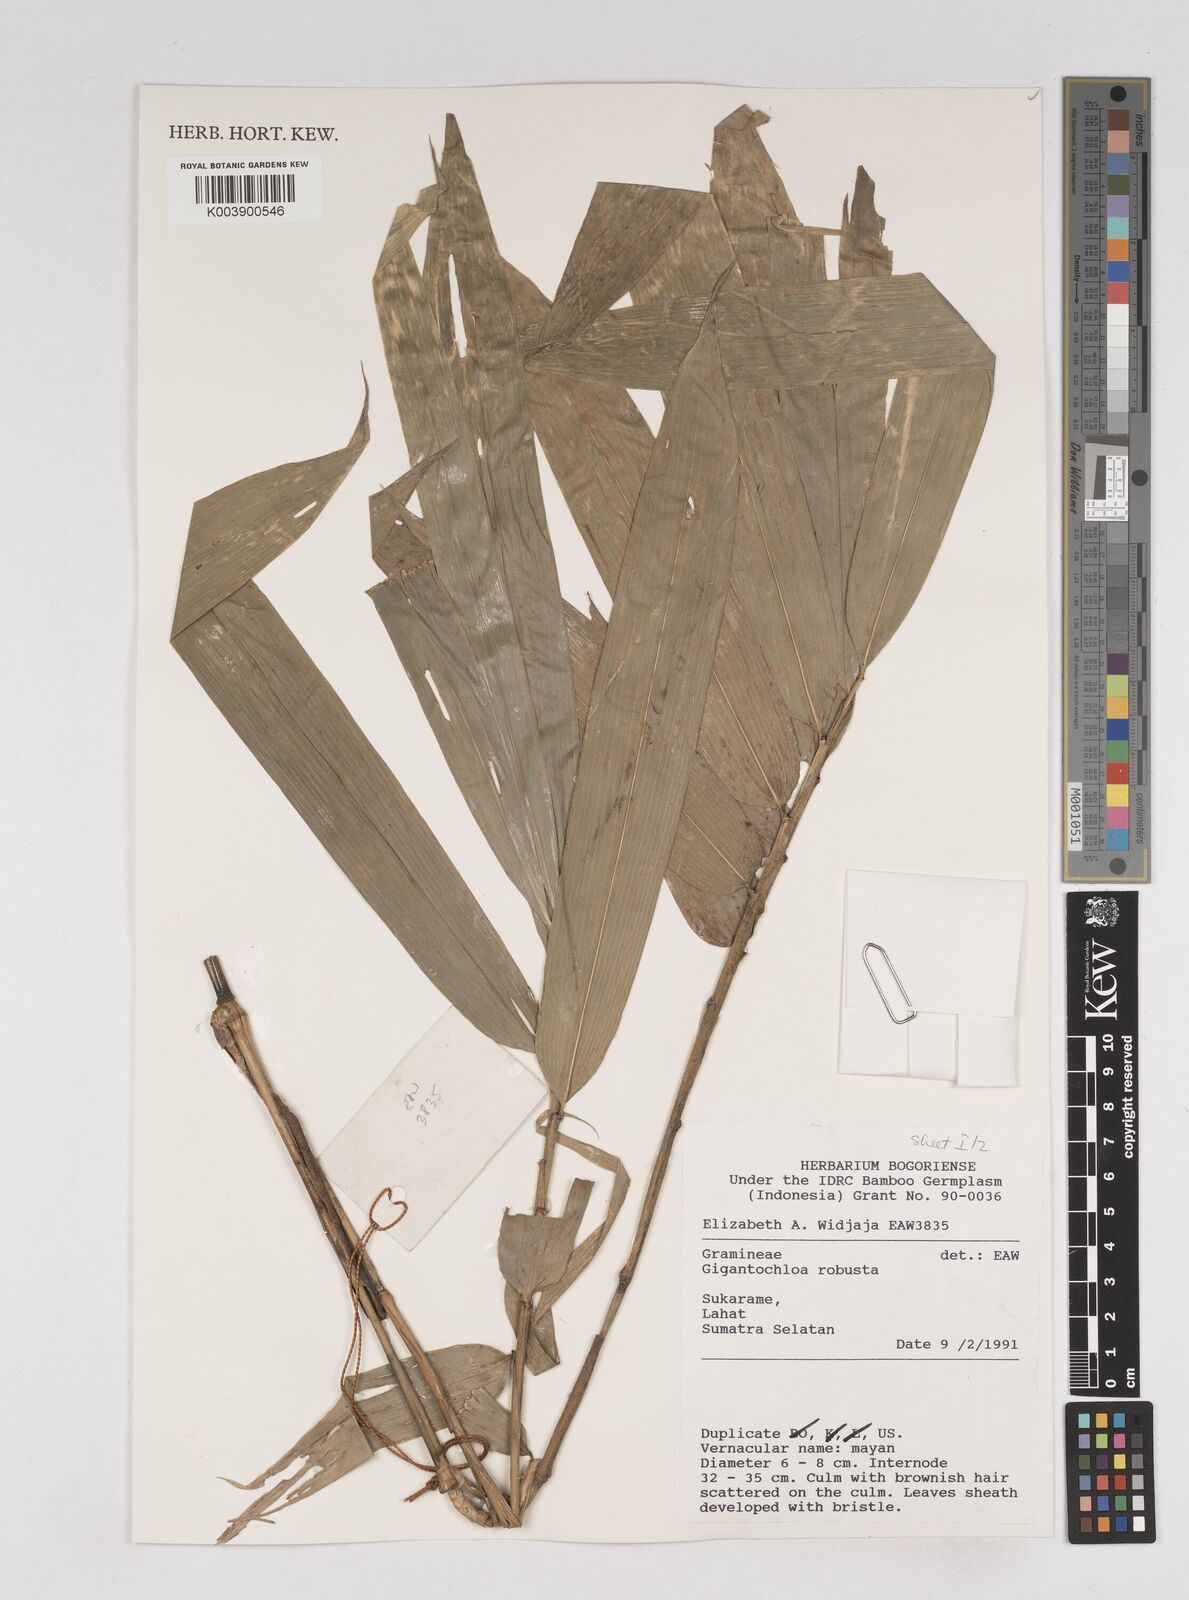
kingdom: Plantae
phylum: Tracheophyta
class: Liliopsida
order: Poales
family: Poaceae
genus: Gigantochloa
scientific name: Gigantochloa robusta
